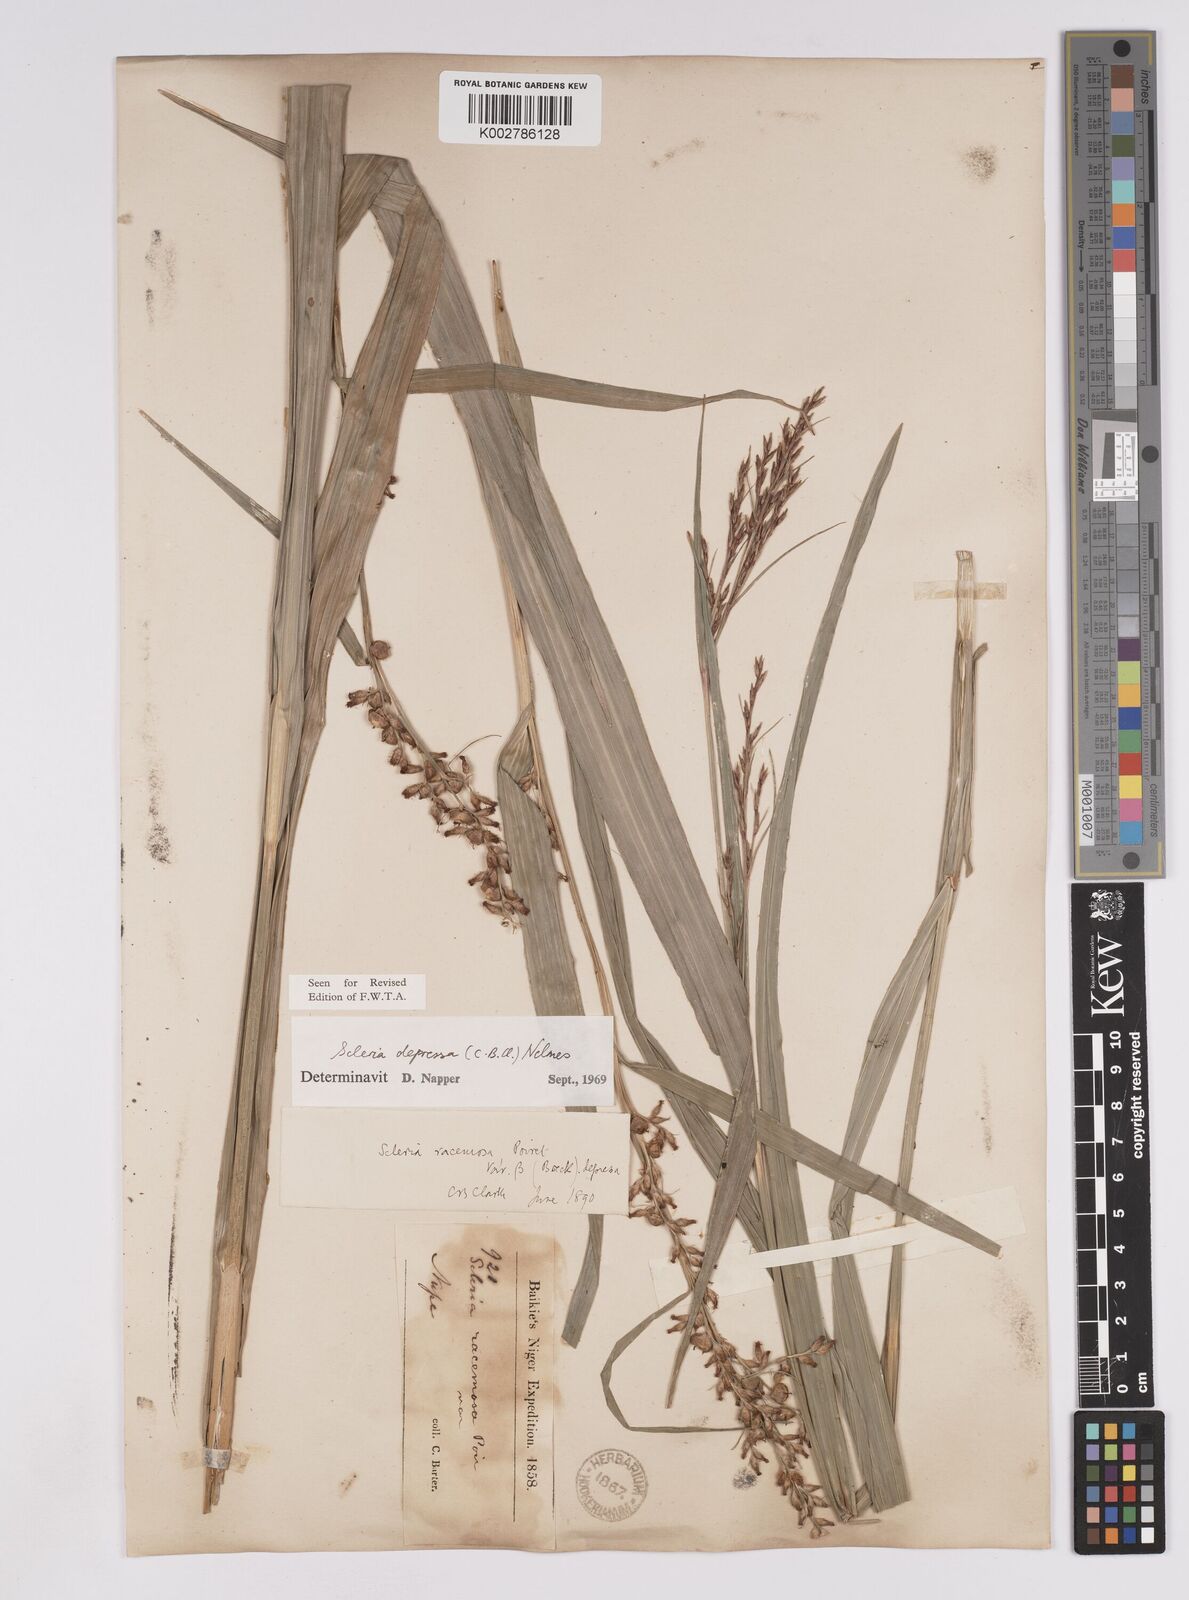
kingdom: Plantae
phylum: Tracheophyta
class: Liliopsida
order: Poales
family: Cyperaceae
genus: Scleria
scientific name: Scleria depressa
